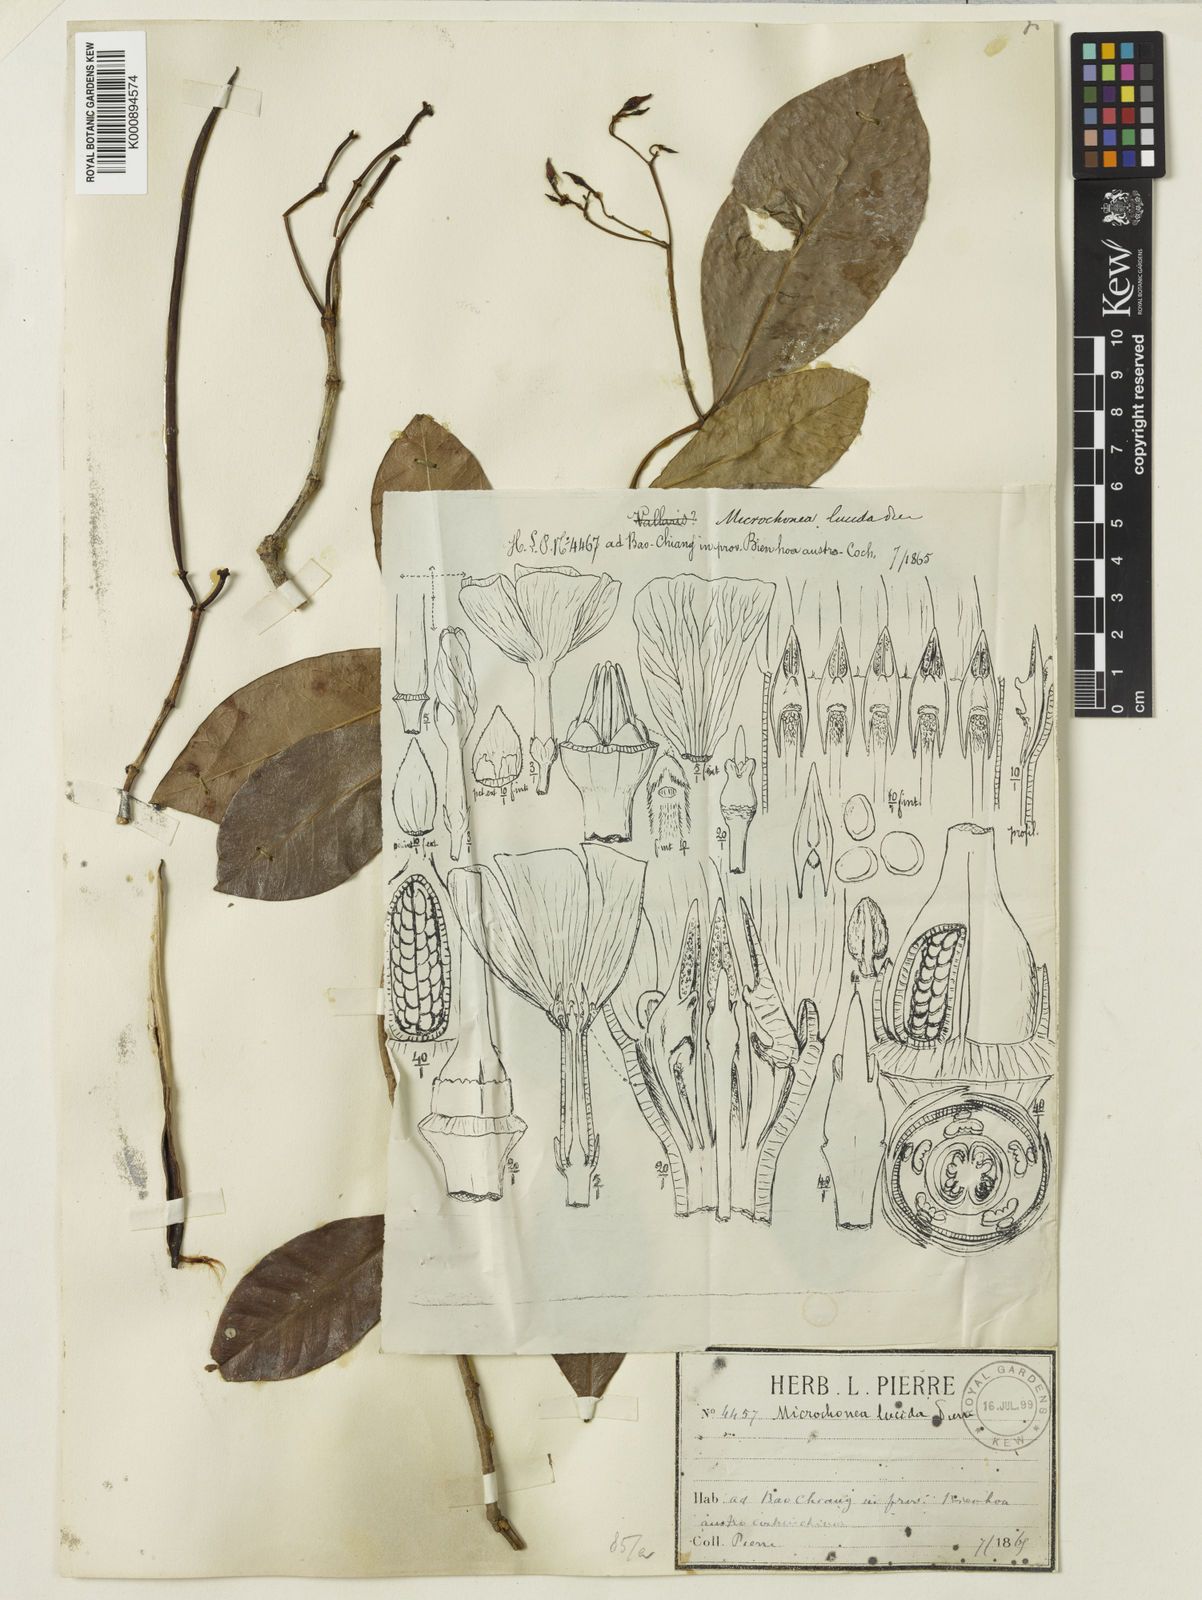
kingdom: Plantae
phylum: Tracheophyta
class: Magnoliopsida
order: Gentianales
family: Apocynaceae
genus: Trachelospermum
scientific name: Trachelospermum asiaticum
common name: Asiatic jasmine
